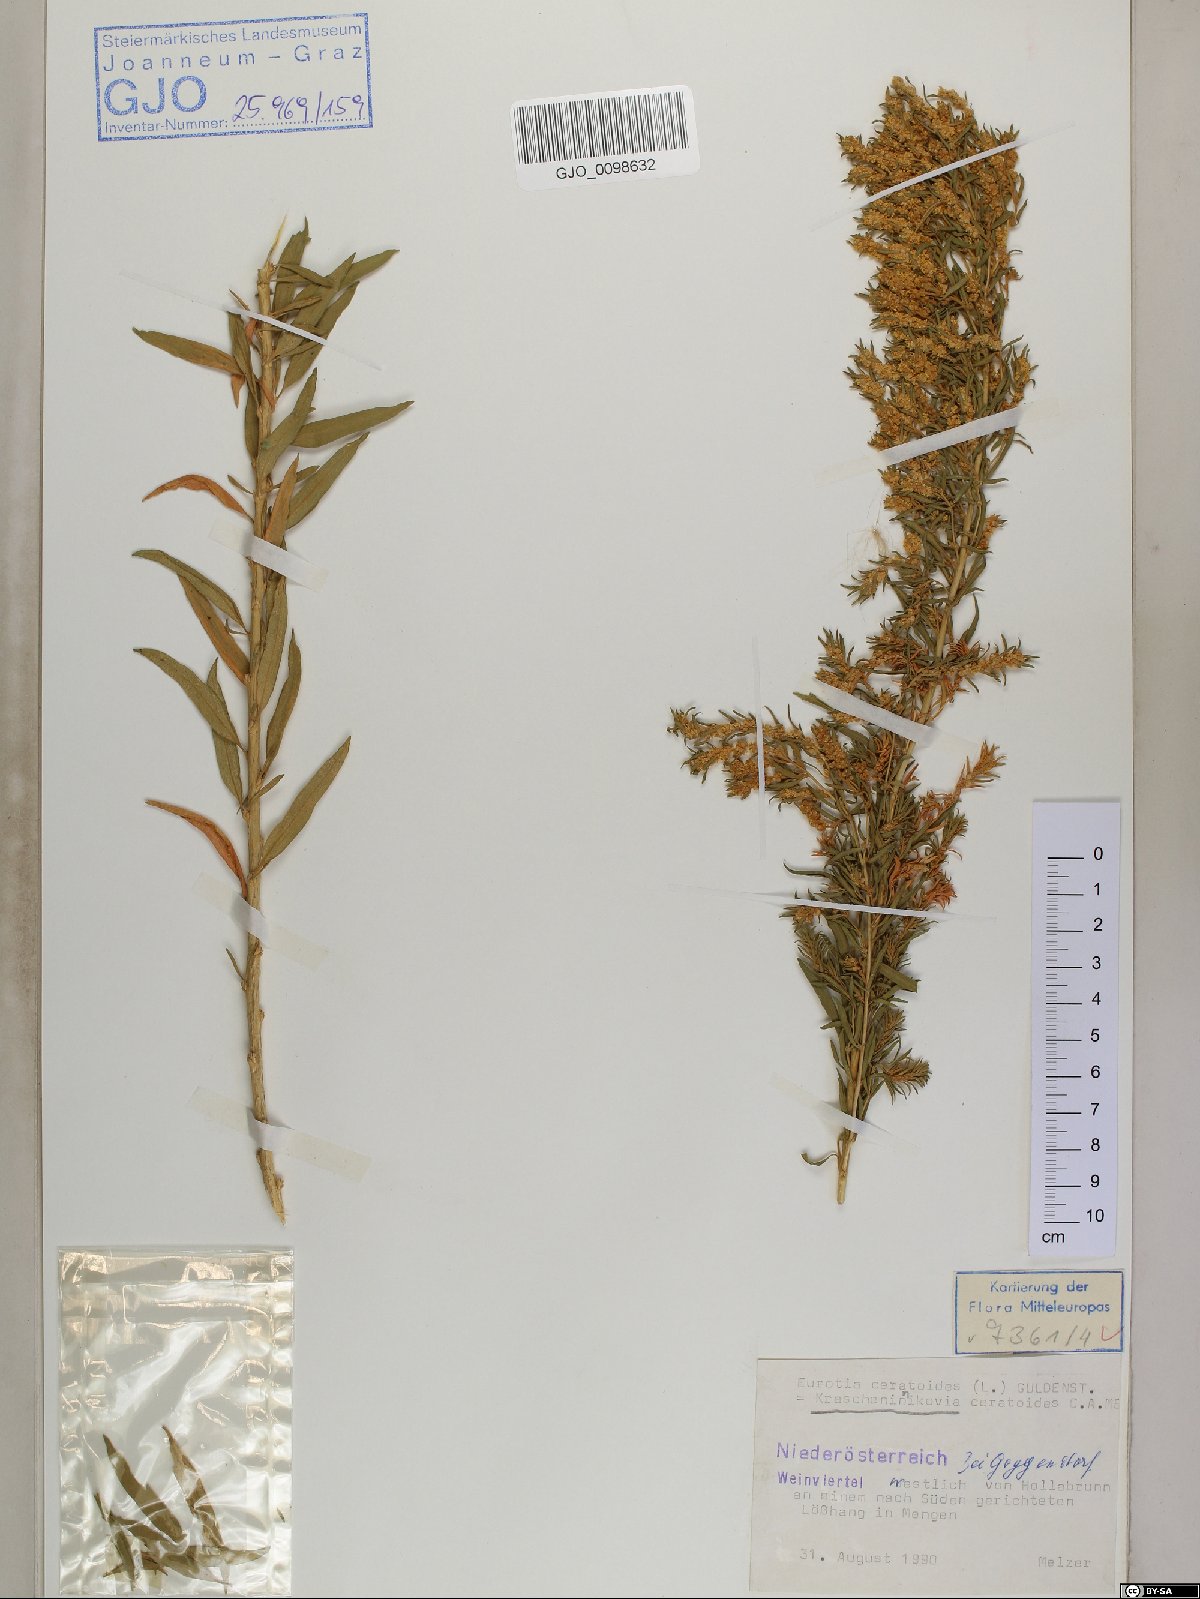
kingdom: Plantae
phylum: Tracheophyta
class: Magnoliopsida
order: Caryophyllales
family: Amaranthaceae
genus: Krascheninnikovia
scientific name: Krascheninnikovia ceratoides
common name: Pamirian winterfat
